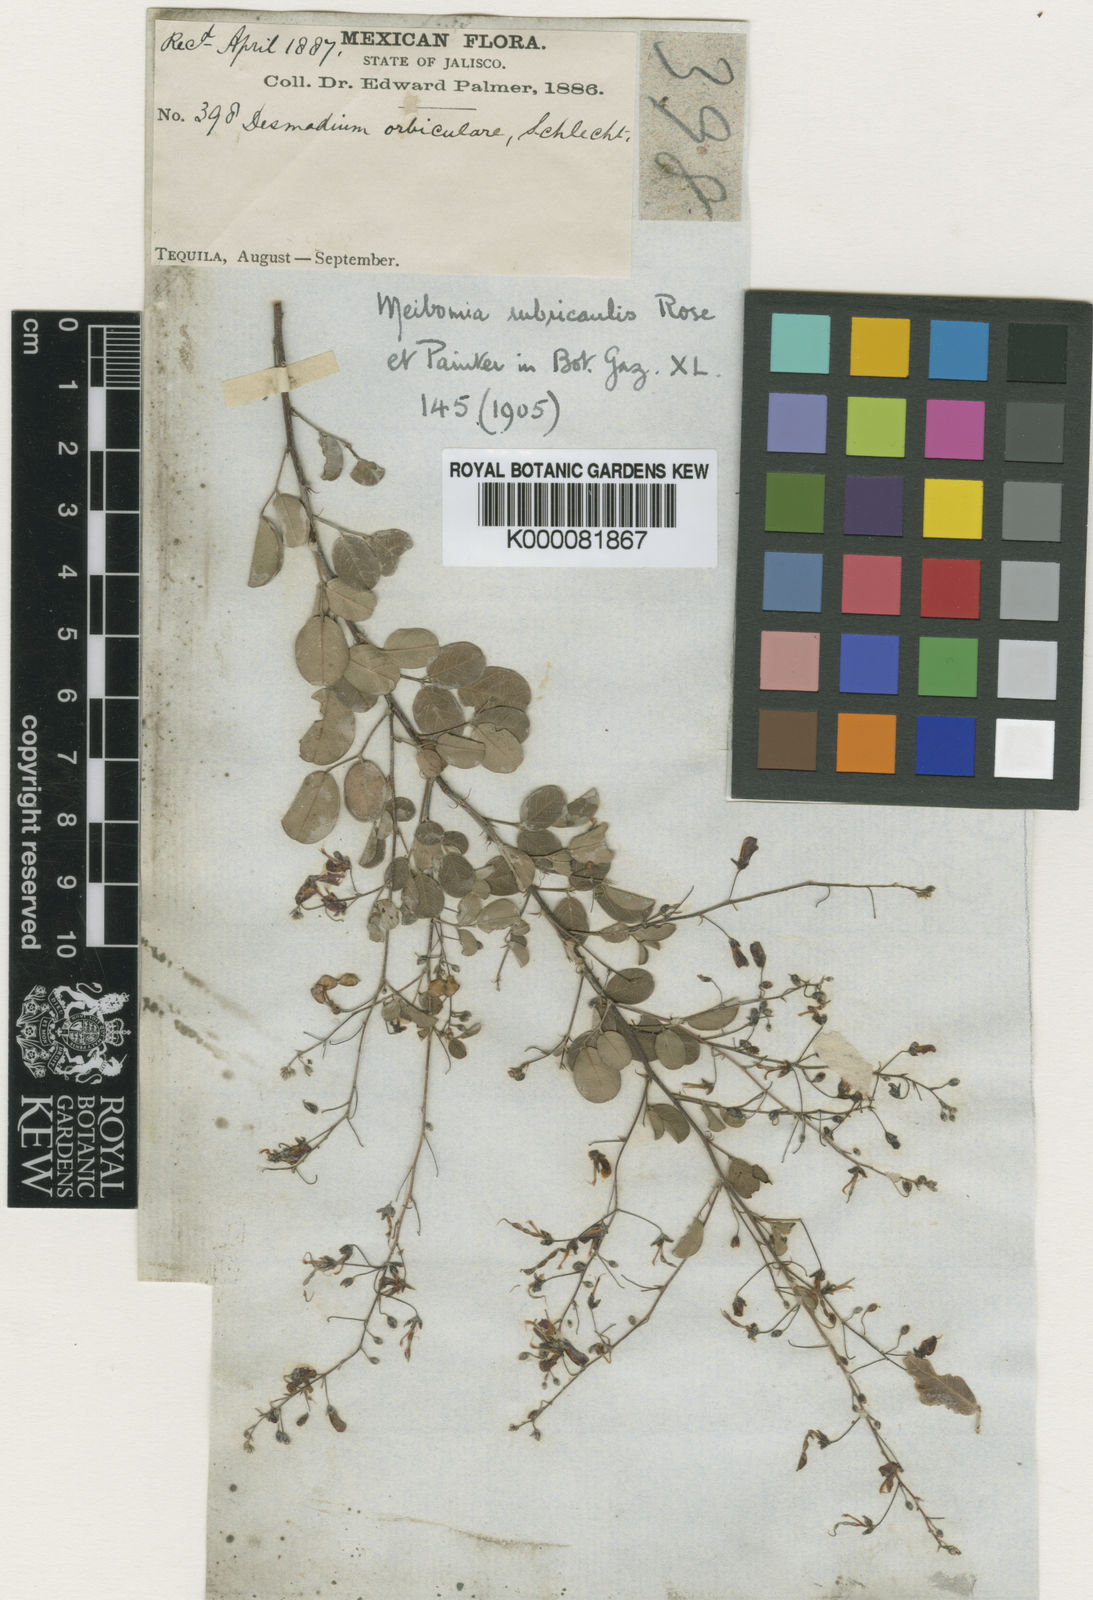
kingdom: Plantae
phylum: Tracheophyta
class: Magnoliopsida
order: Fabales
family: Fabaceae
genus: Desmodium
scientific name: Desmodium
